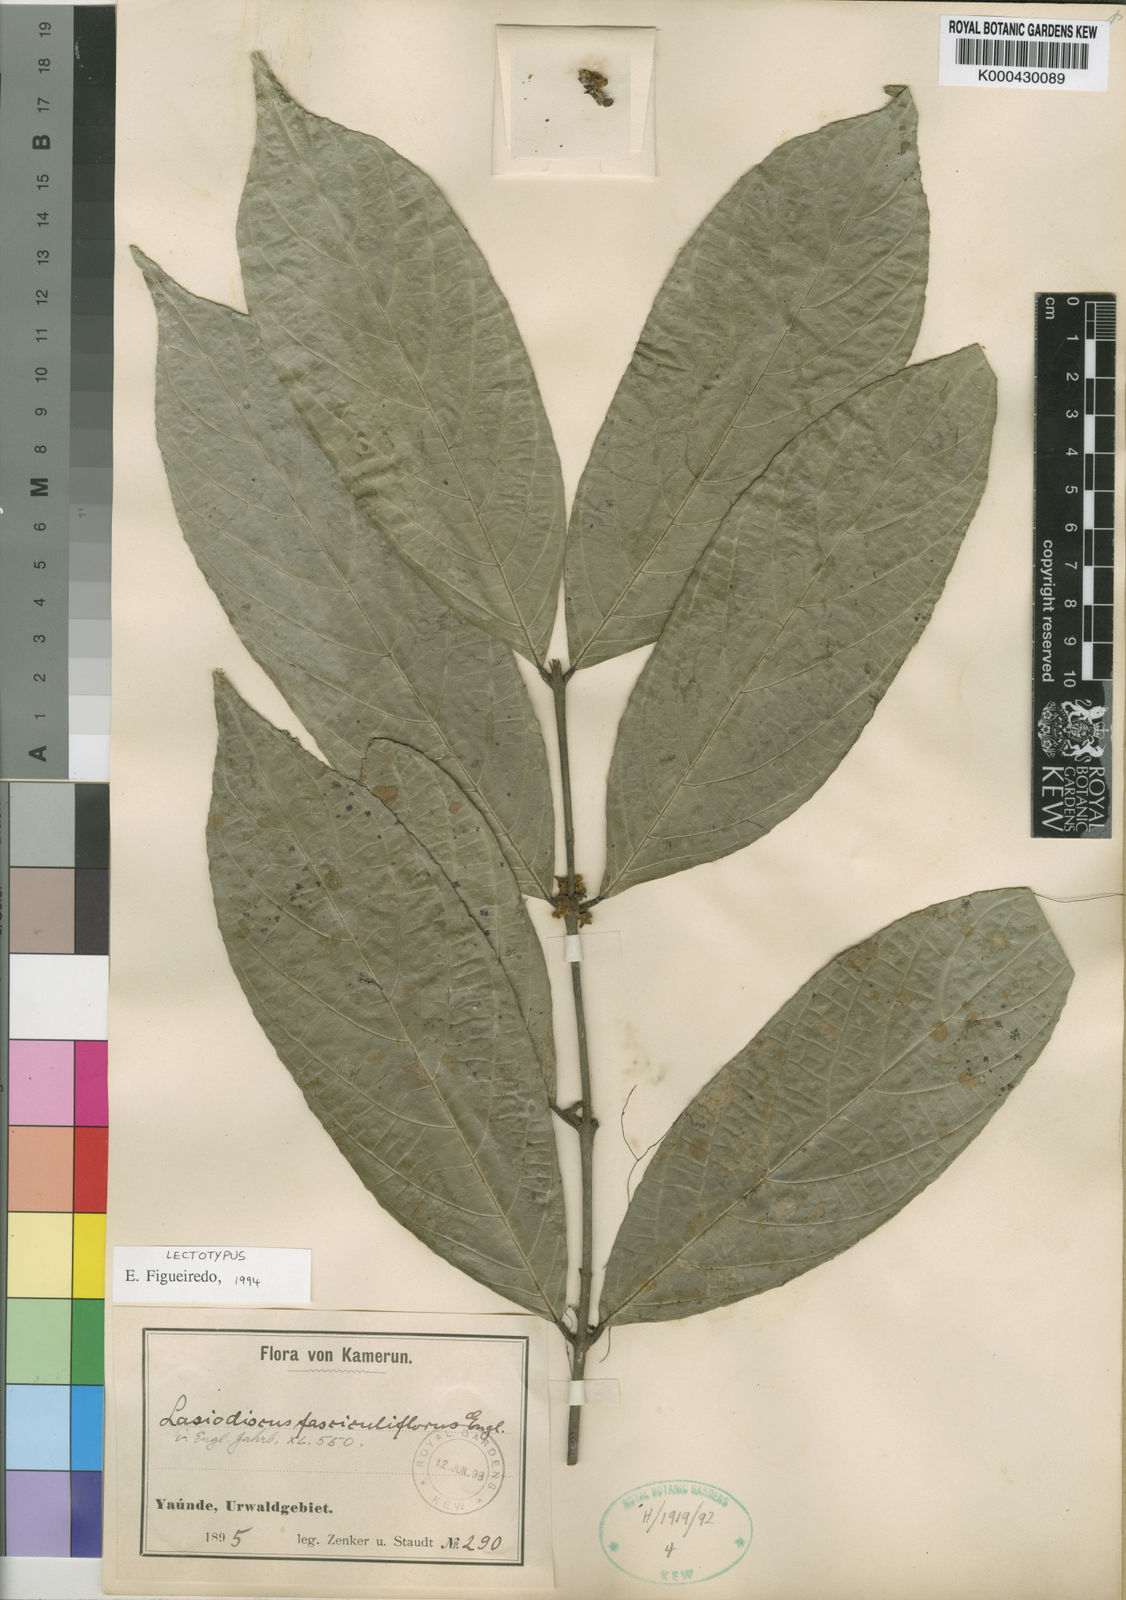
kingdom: Plantae
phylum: Tracheophyta
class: Magnoliopsida
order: Rosales
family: Rhamnaceae
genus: Lasiodiscus
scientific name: Lasiodiscus fasciculiflorus
